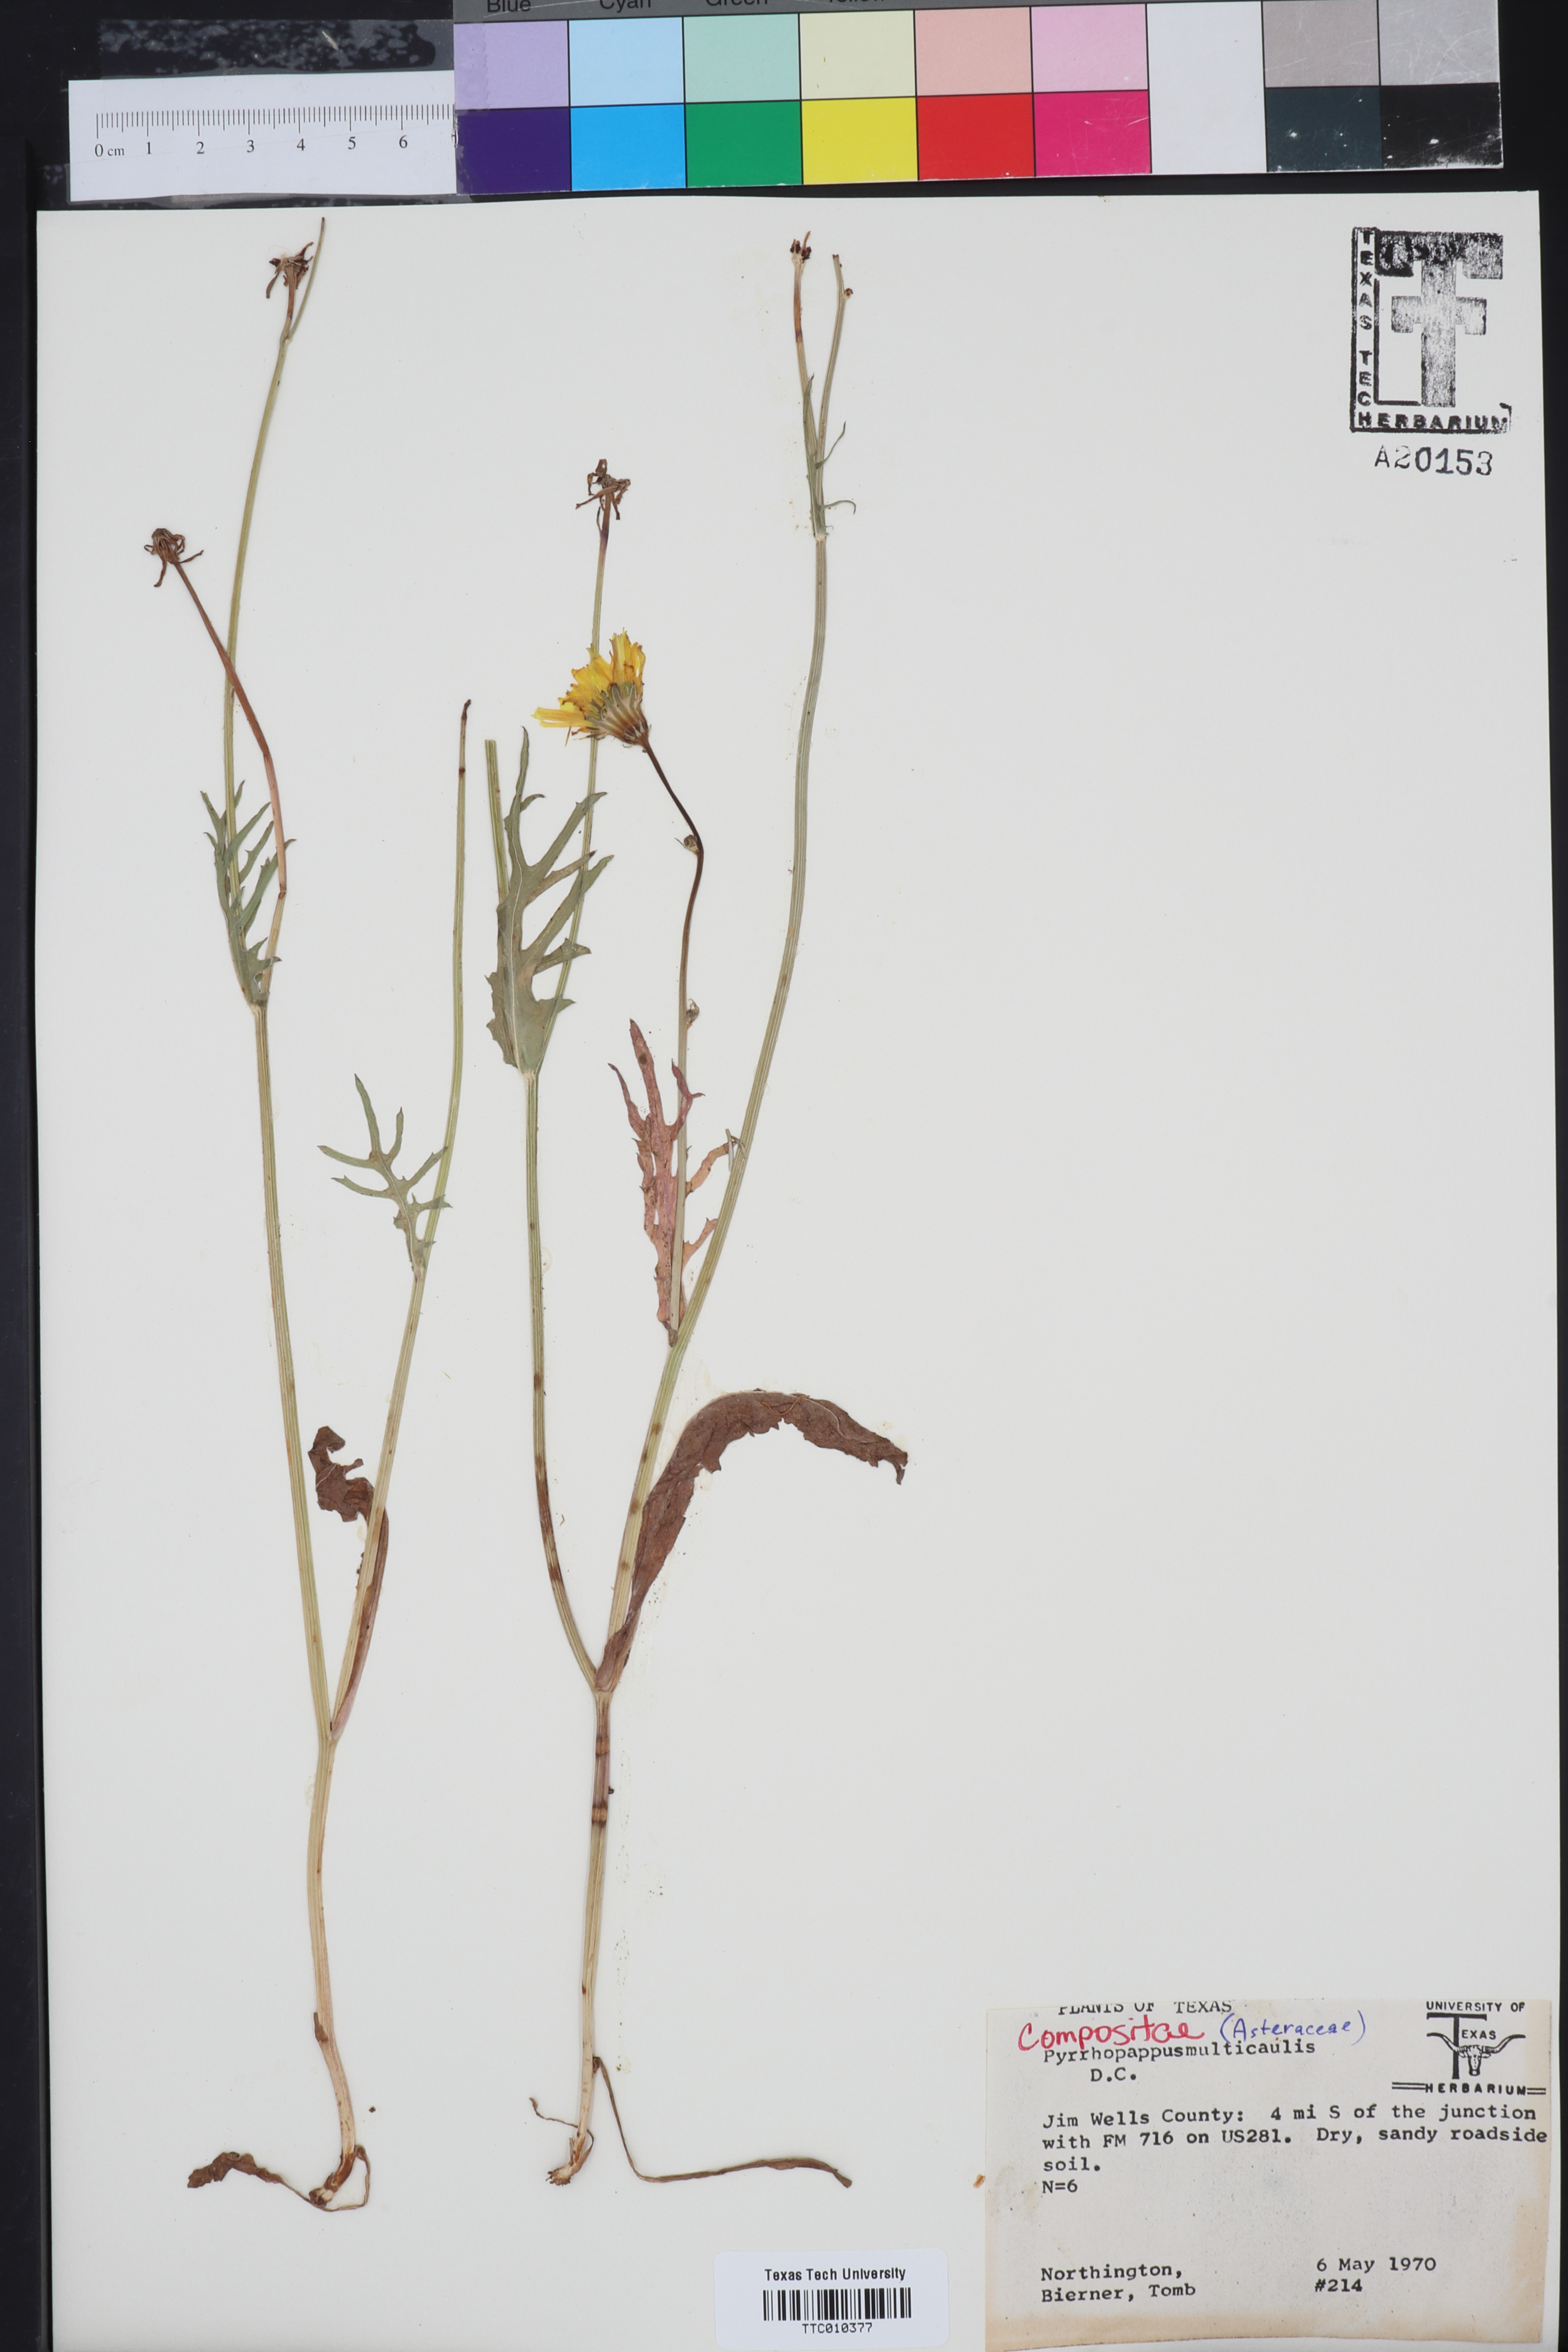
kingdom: Plantae
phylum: Tracheophyta
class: Magnoliopsida
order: Asterales
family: Asteraceae
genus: Pyrrhopappus
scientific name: Pyrrhopappus pauciflorus
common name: Texas false dandelion
